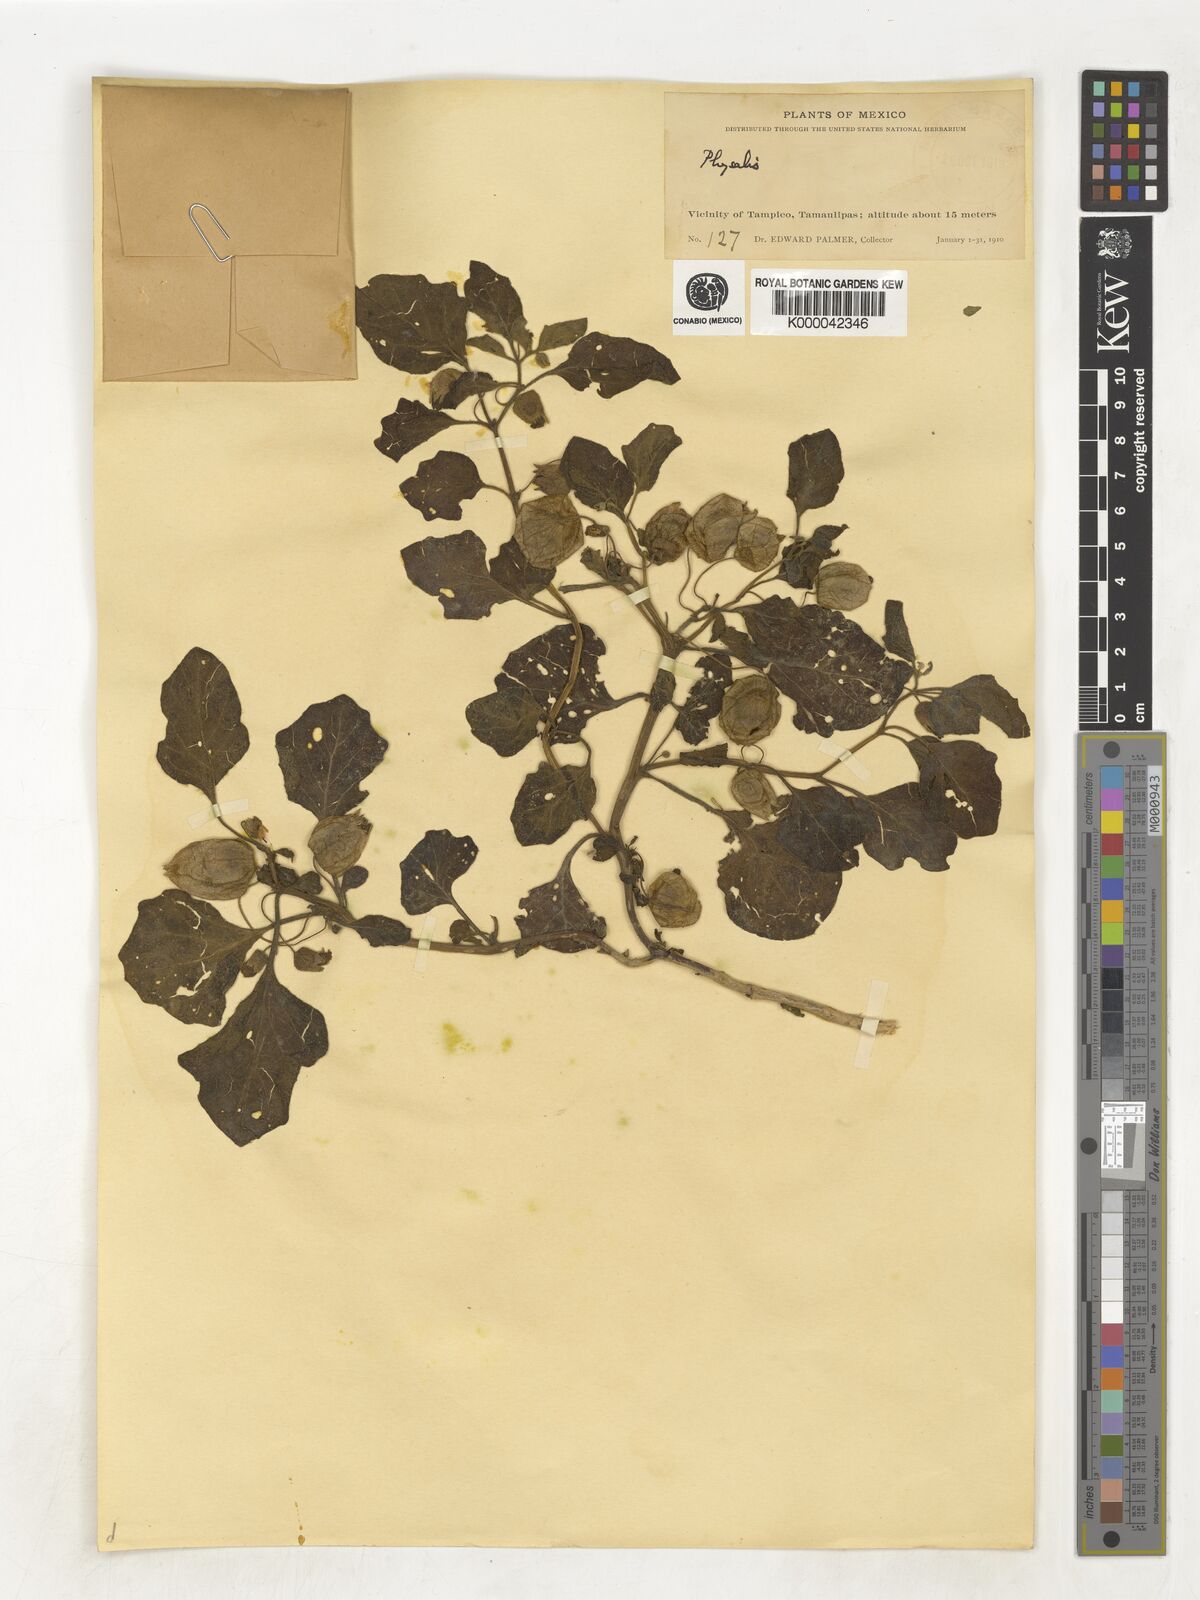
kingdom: Plantae
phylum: Tracheophyta
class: Magnoliopsida
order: Solanales
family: Solanaceae
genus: Physalis
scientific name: Physalis
